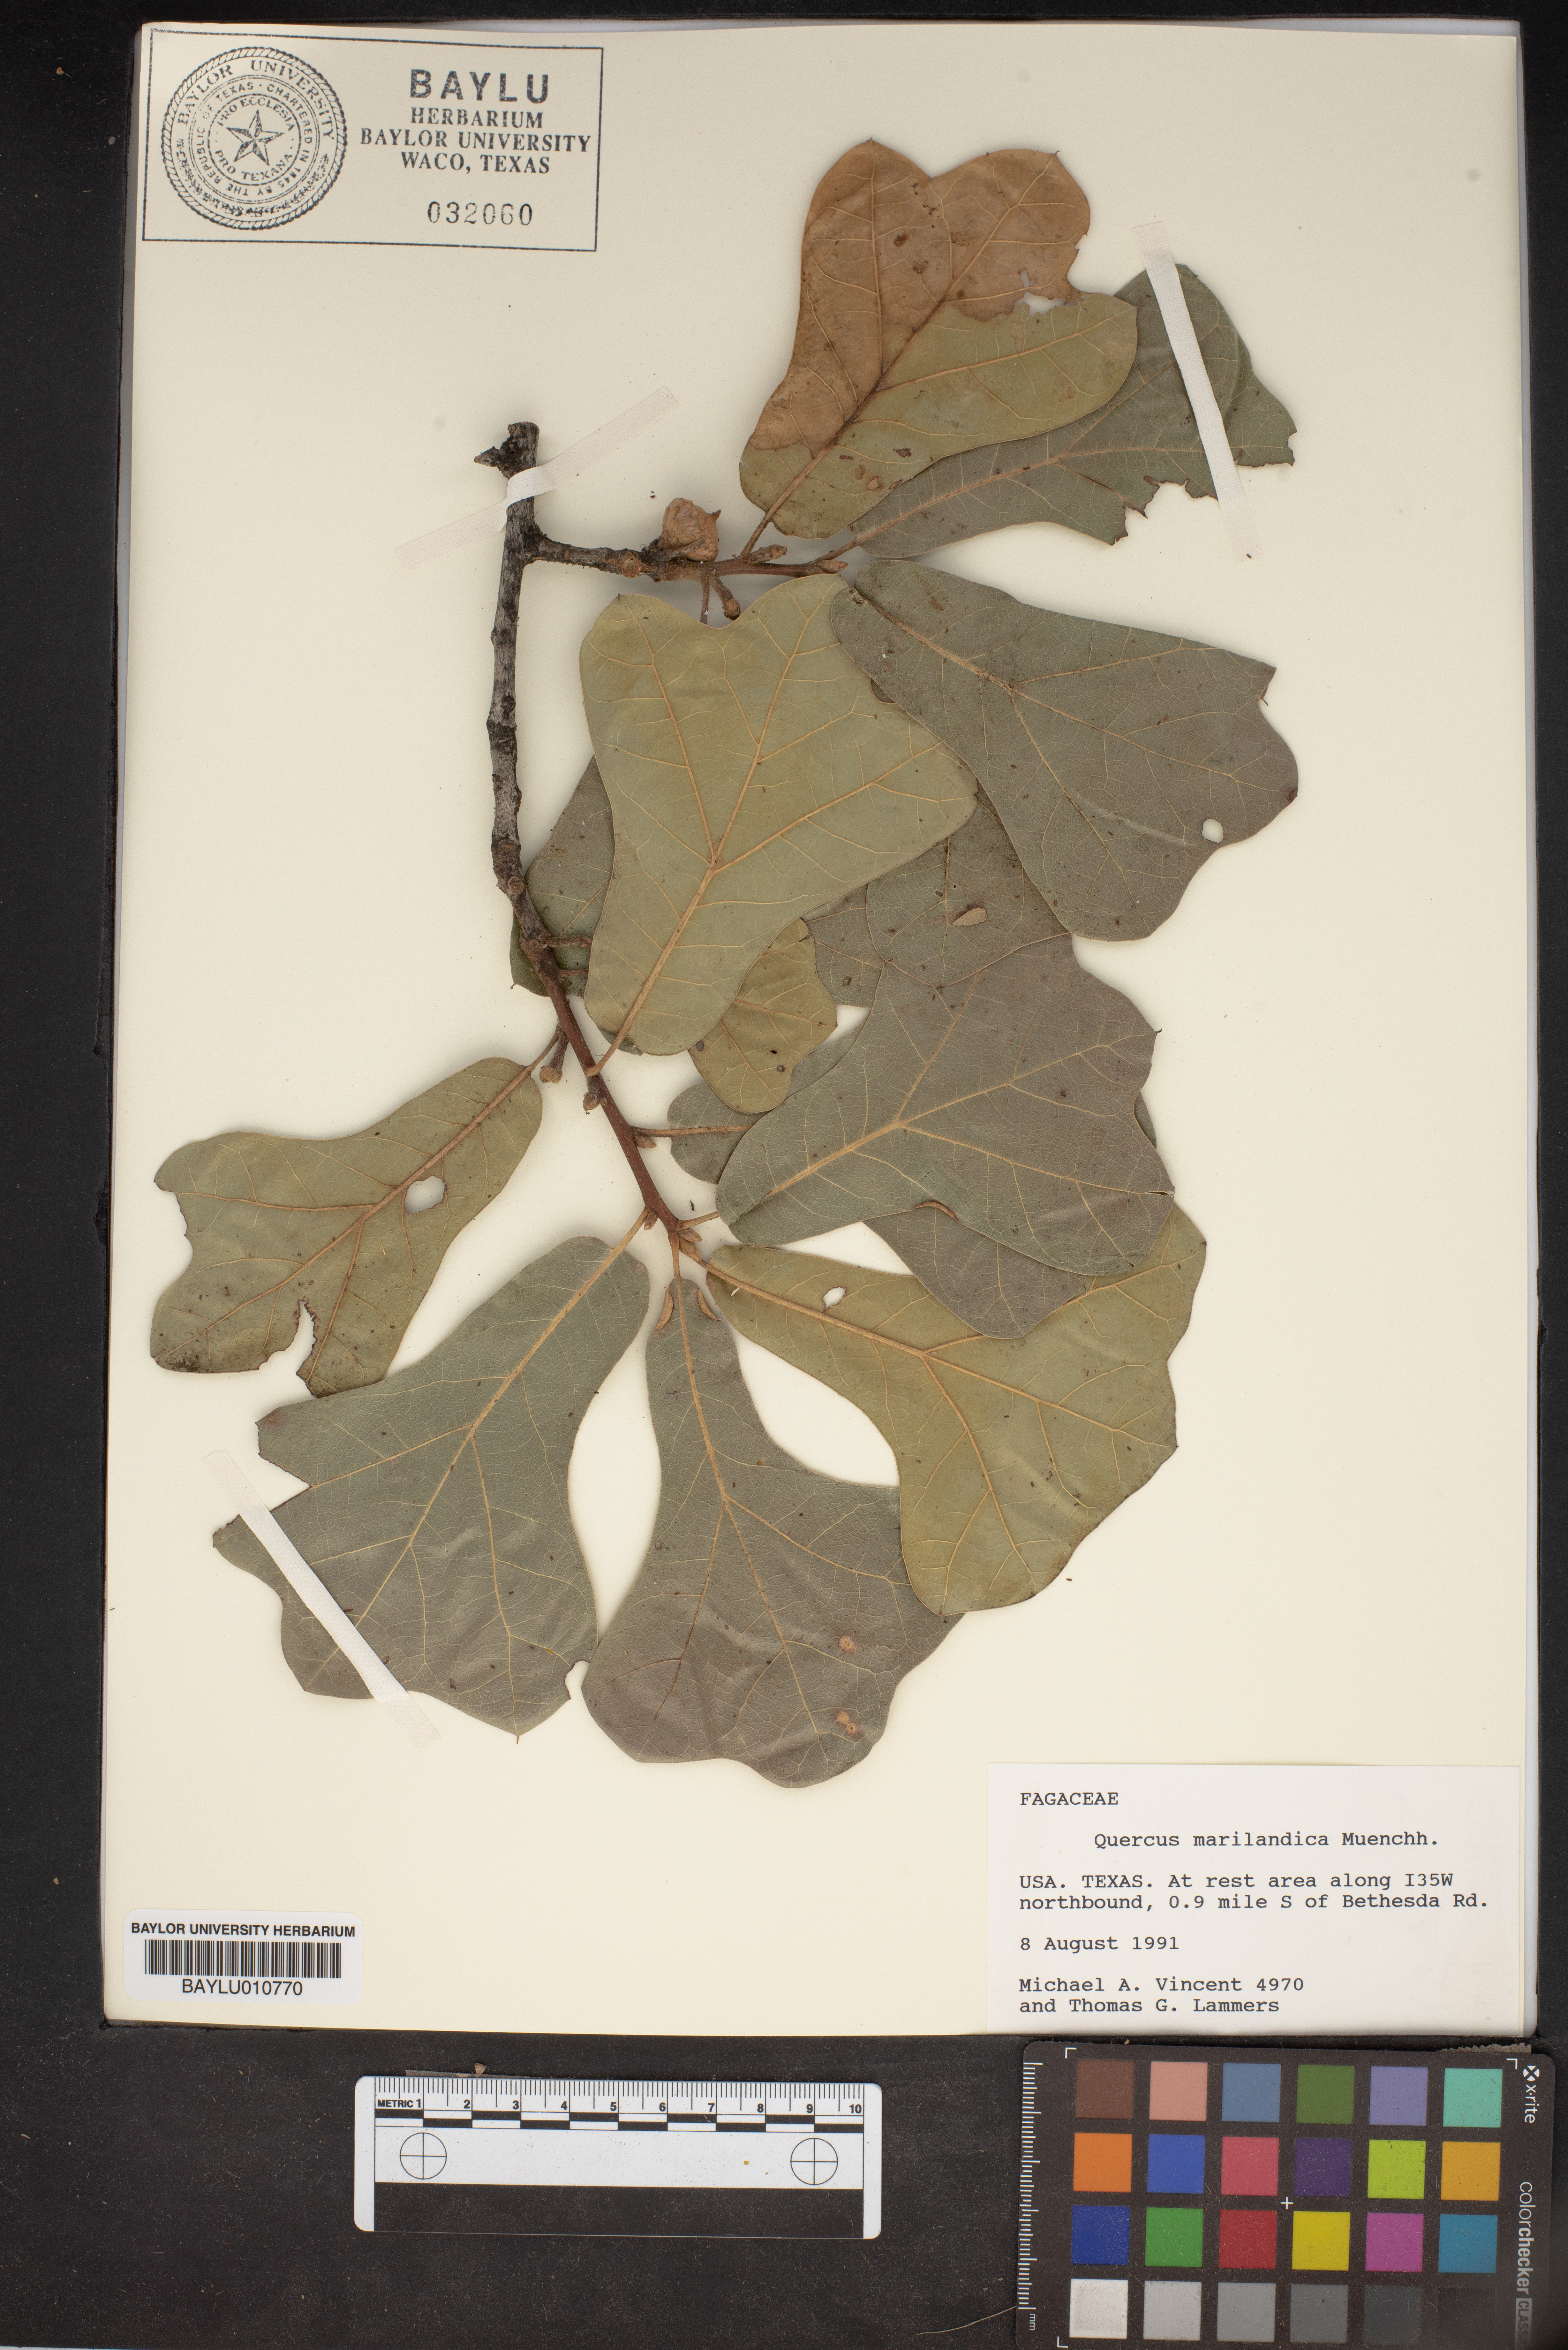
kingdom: Plantae
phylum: Tracheophyta
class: Magnoliopsida
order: Fagales
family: Fagaceae
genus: Quercus
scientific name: Quercus marilandica
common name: Blackjack oak
